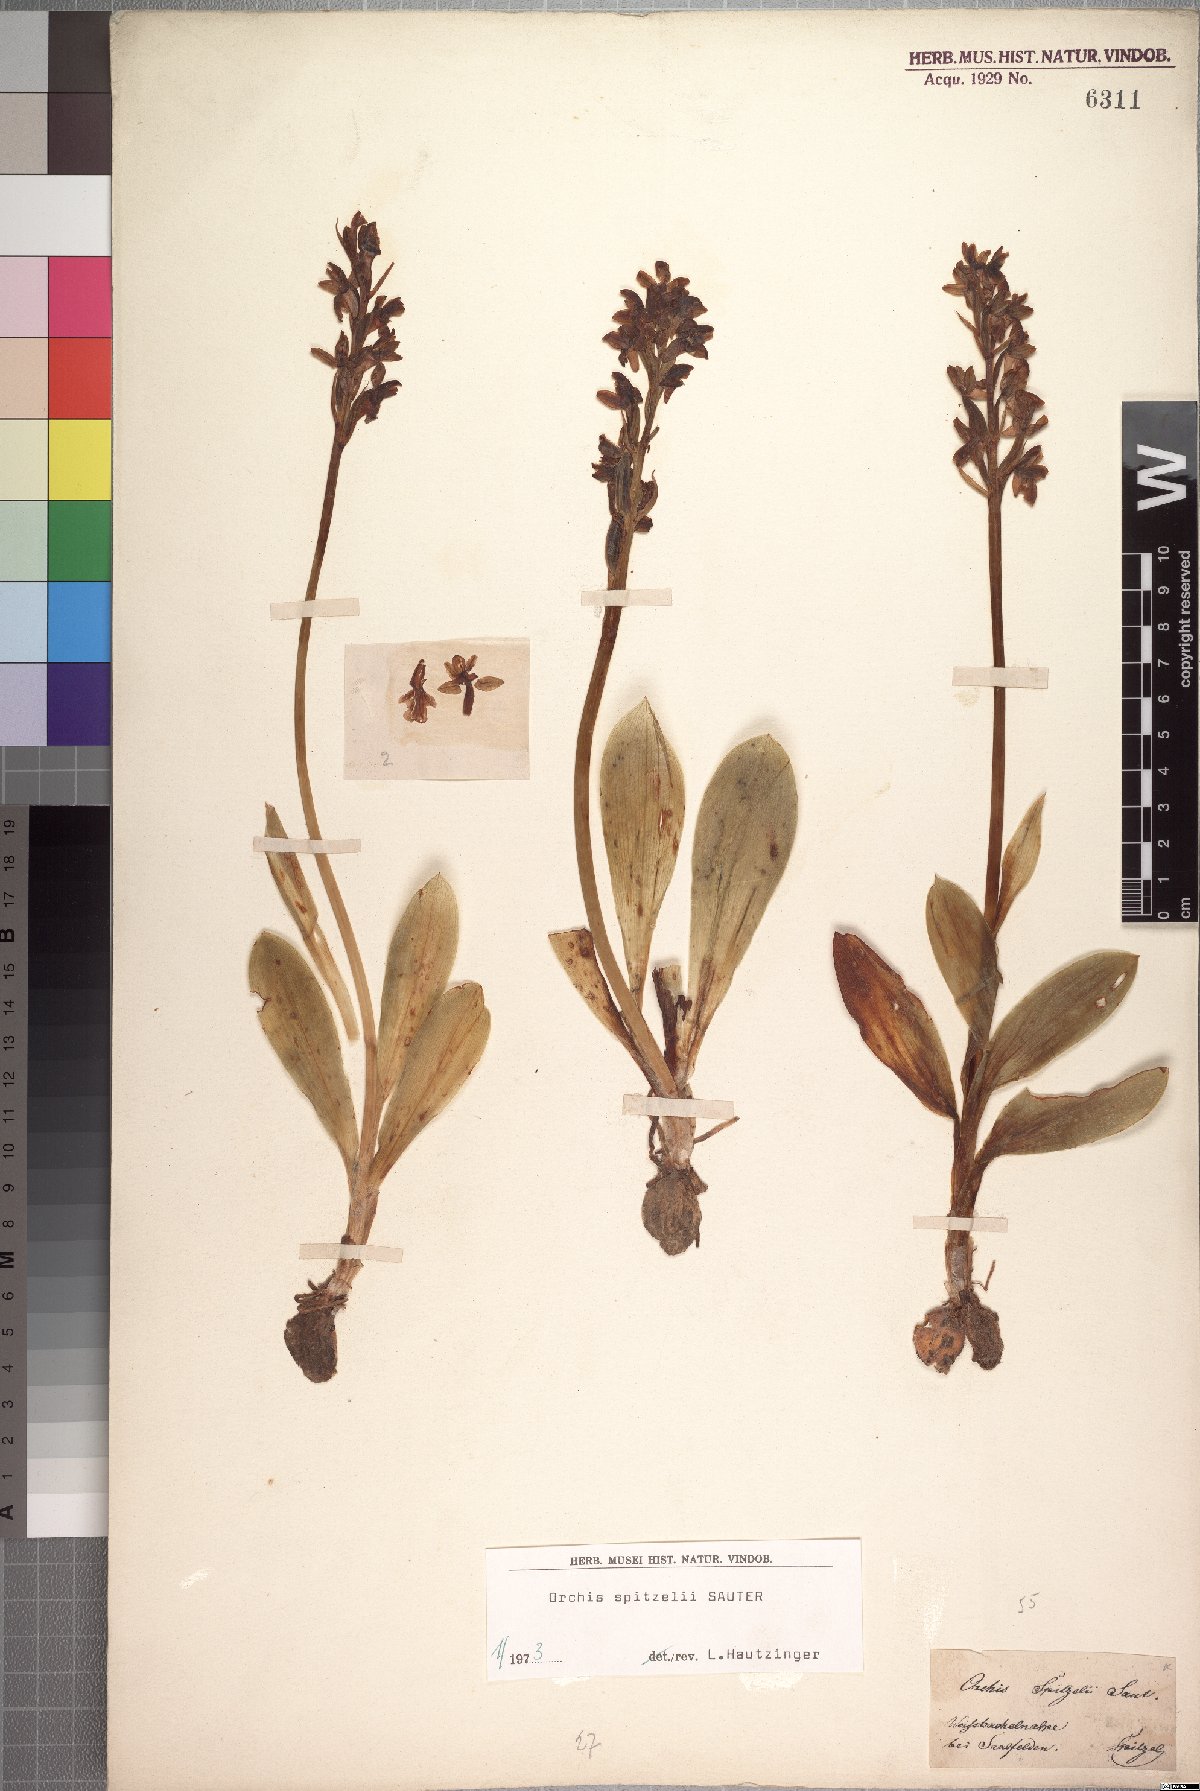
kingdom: Plantae
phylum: Tracheophyta
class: Liliopsida
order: Asparagales
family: Orchidaceae
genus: Orchis
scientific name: Orchis spitzelii
